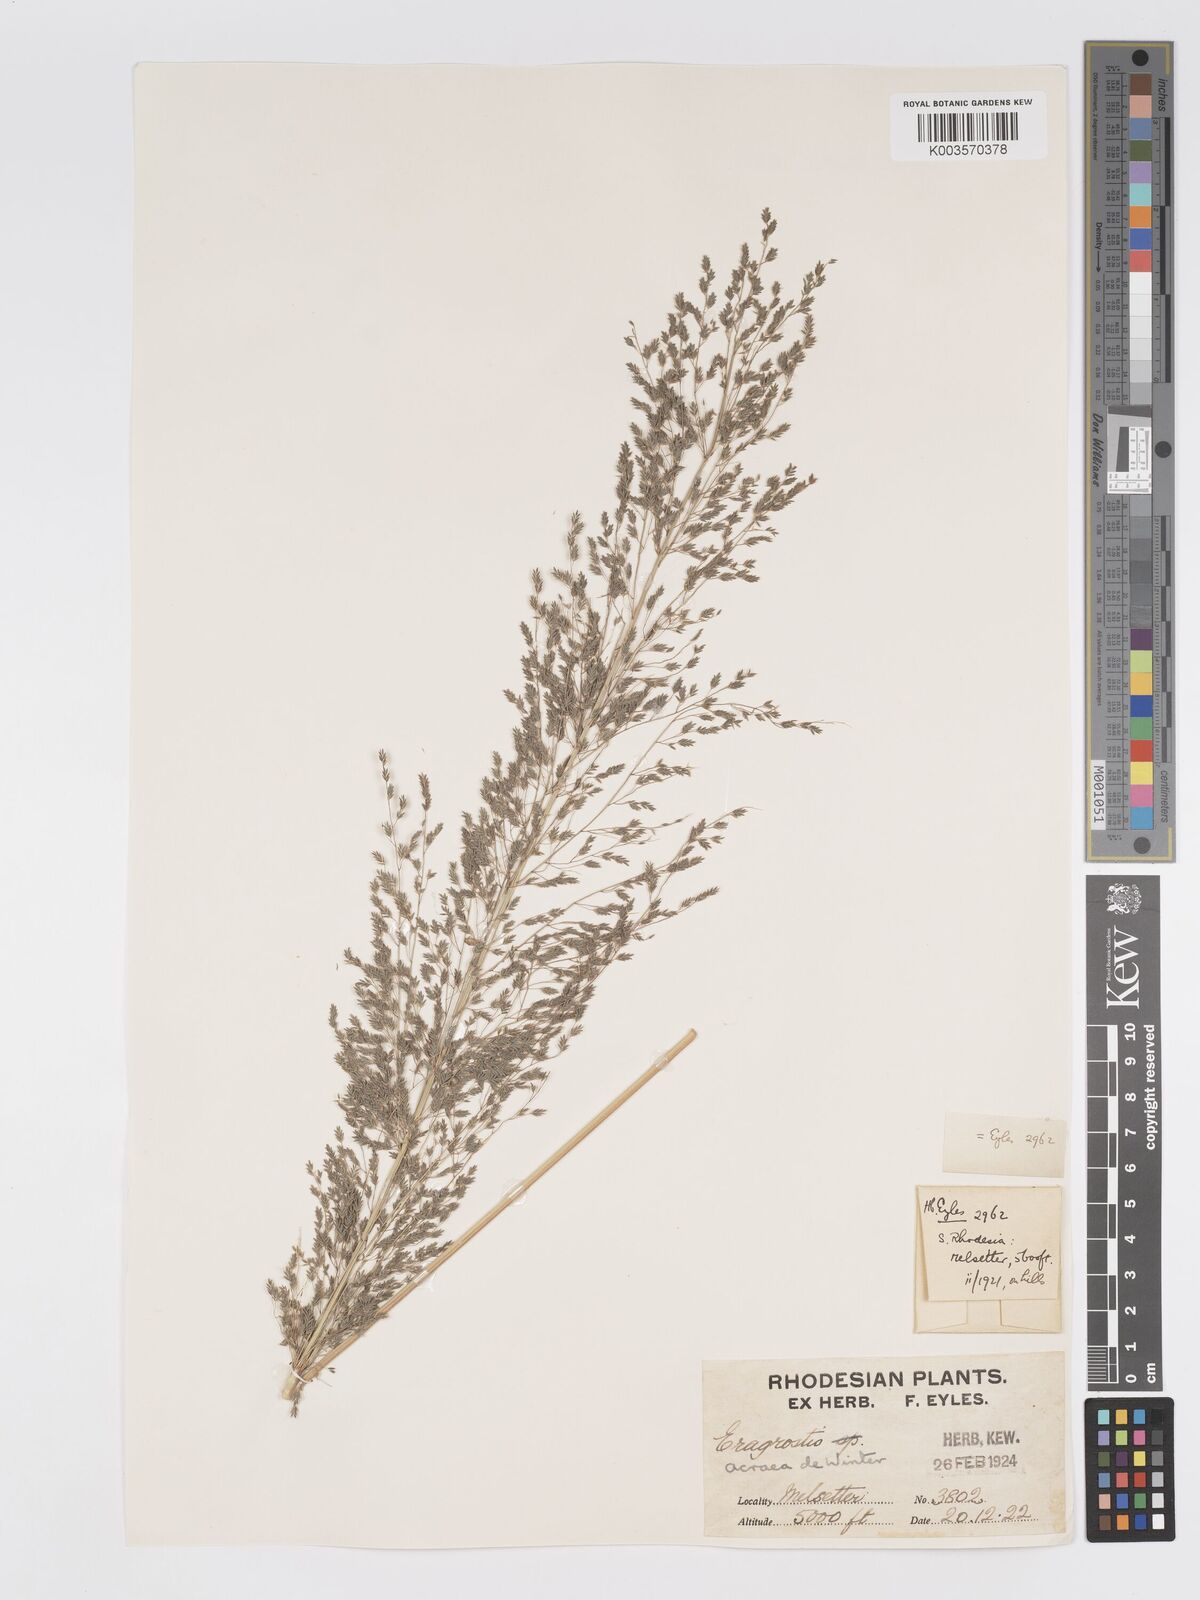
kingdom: Plantae
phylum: Tracheophyta
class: Liliopsida
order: Poales
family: Poaceae
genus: Eragrostis
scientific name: Eragrostis acraea
